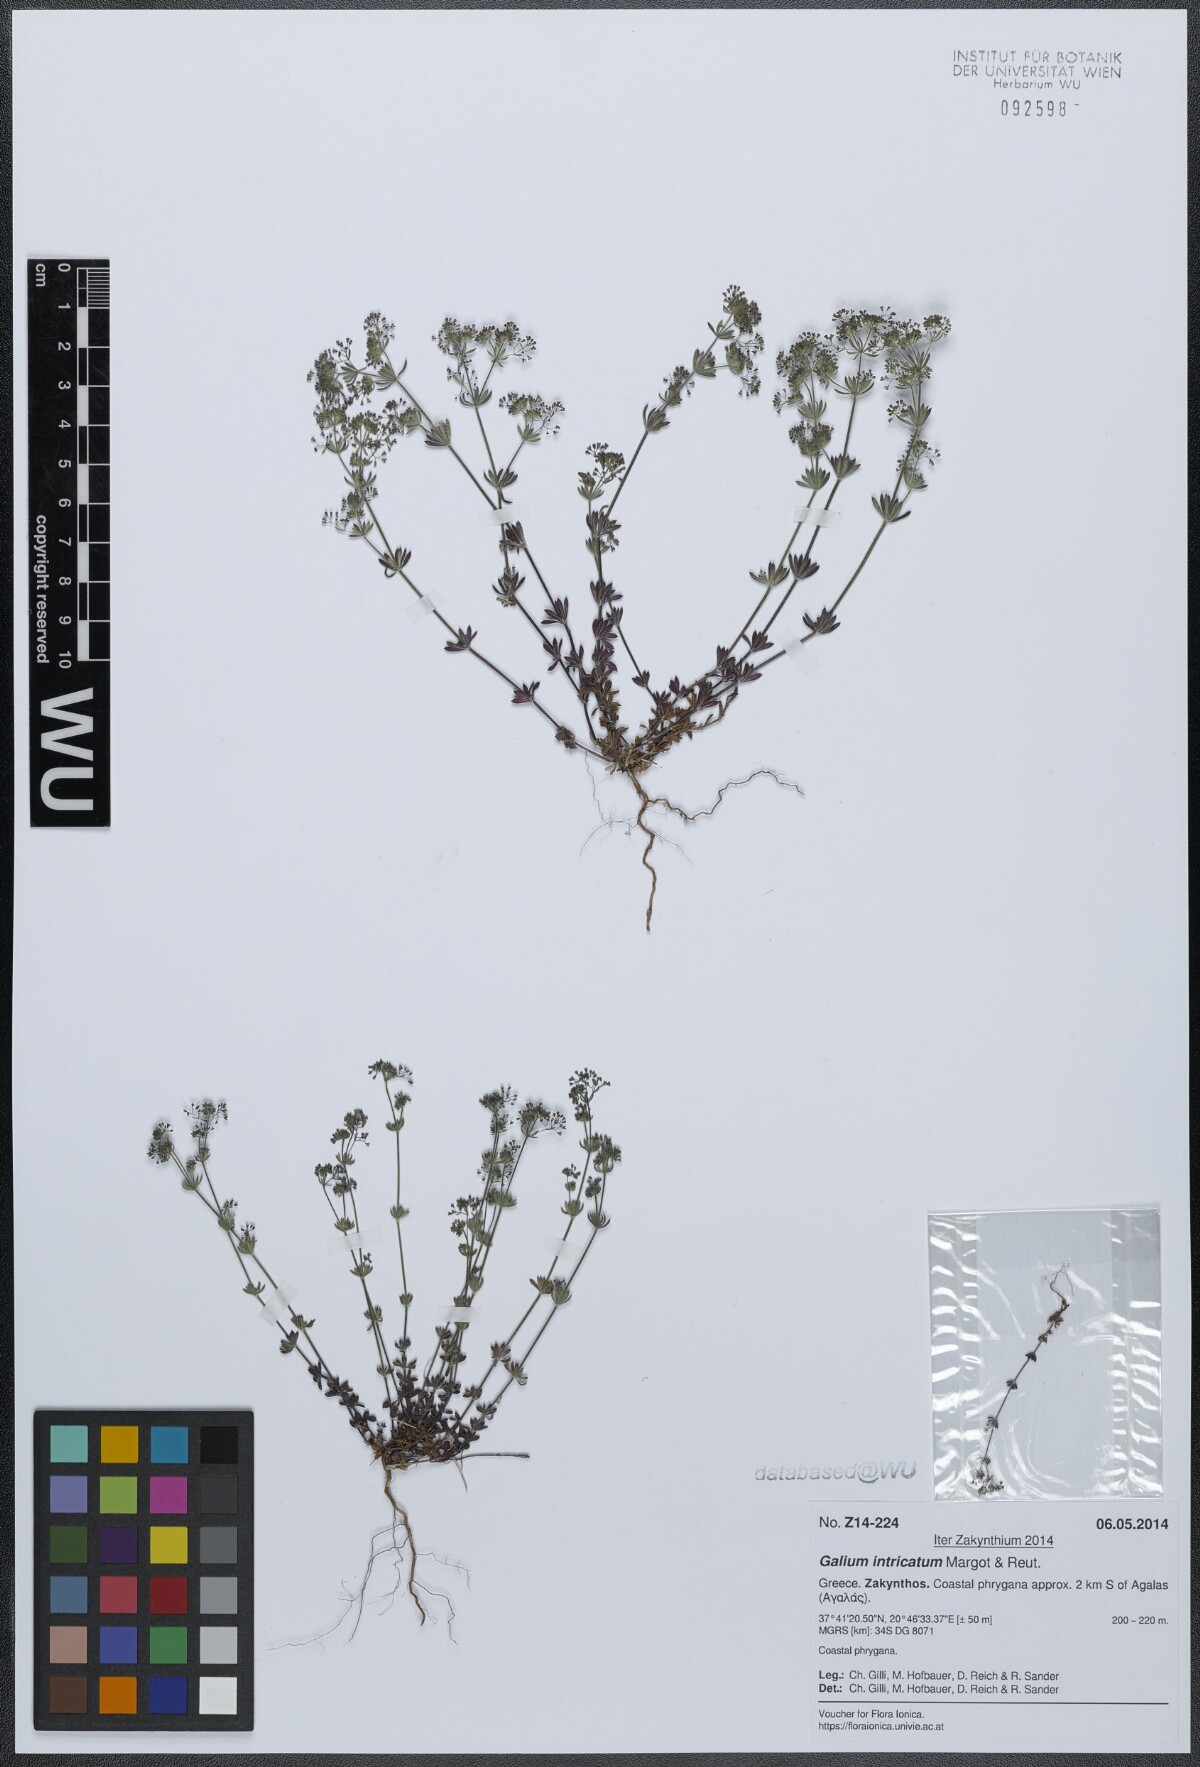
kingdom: Plantae
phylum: Tracheophyta
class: Magnoliopsida
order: Gentianales
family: Rubiaceae
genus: Galium
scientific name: Galium intricatum
